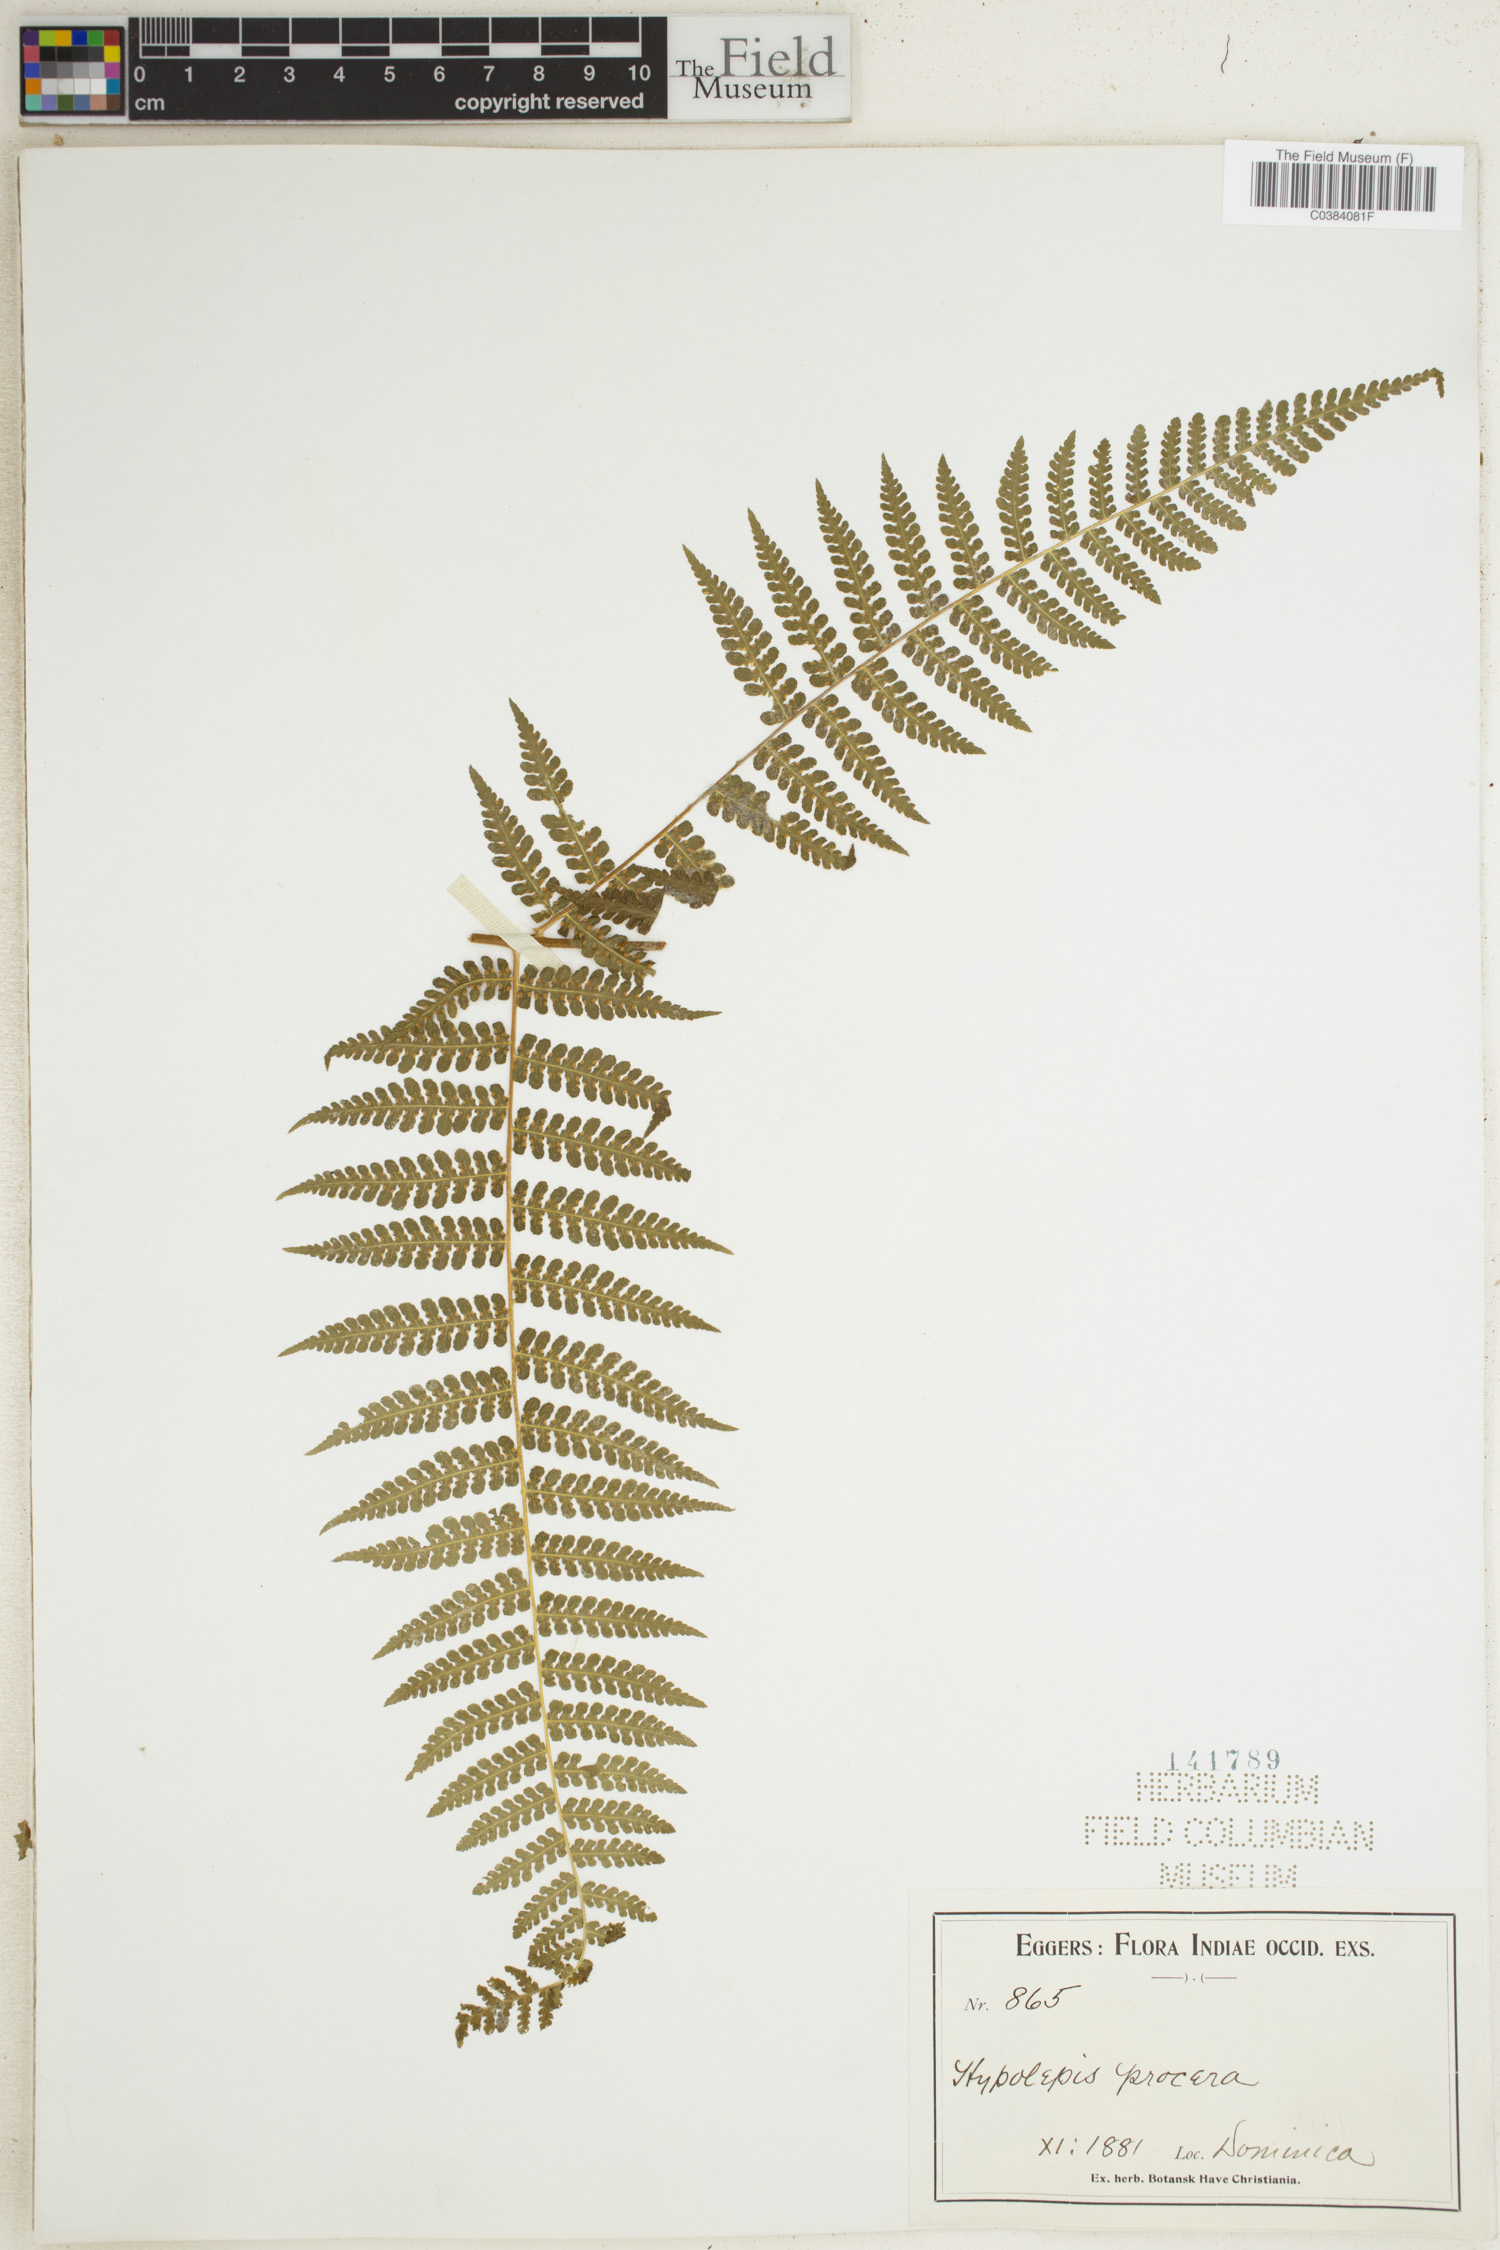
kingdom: Plantae
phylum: Tracheophyta
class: Polypodiopsida
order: Polypodiales
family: Dennstaedtiaceae
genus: Hypolepis
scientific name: Hypolepis repens
